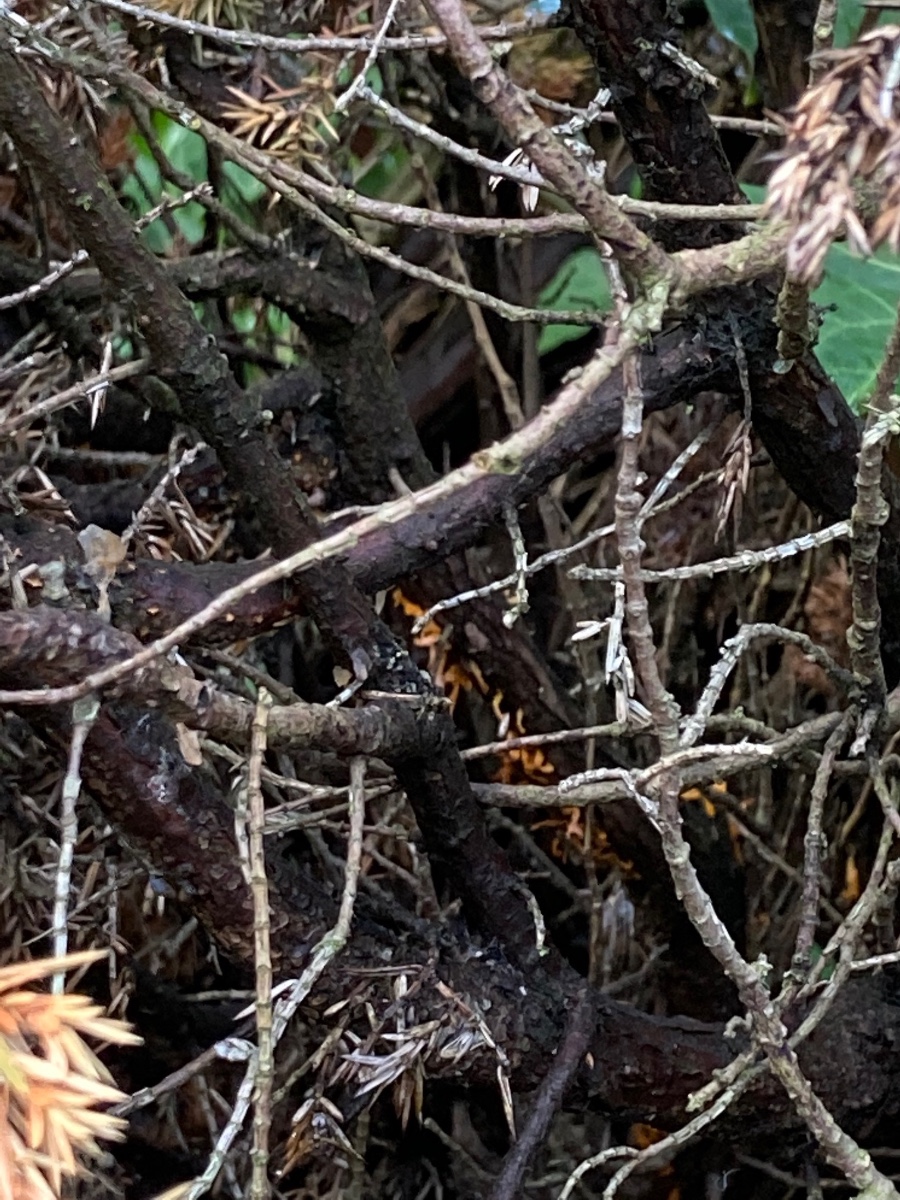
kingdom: Fungi
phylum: Basidiomycota
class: Pucciniomycetes
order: Pucciniales
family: Gymnosporangiaceae
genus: Gymnosporangium
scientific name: Gymnosporangium clavariiforme
